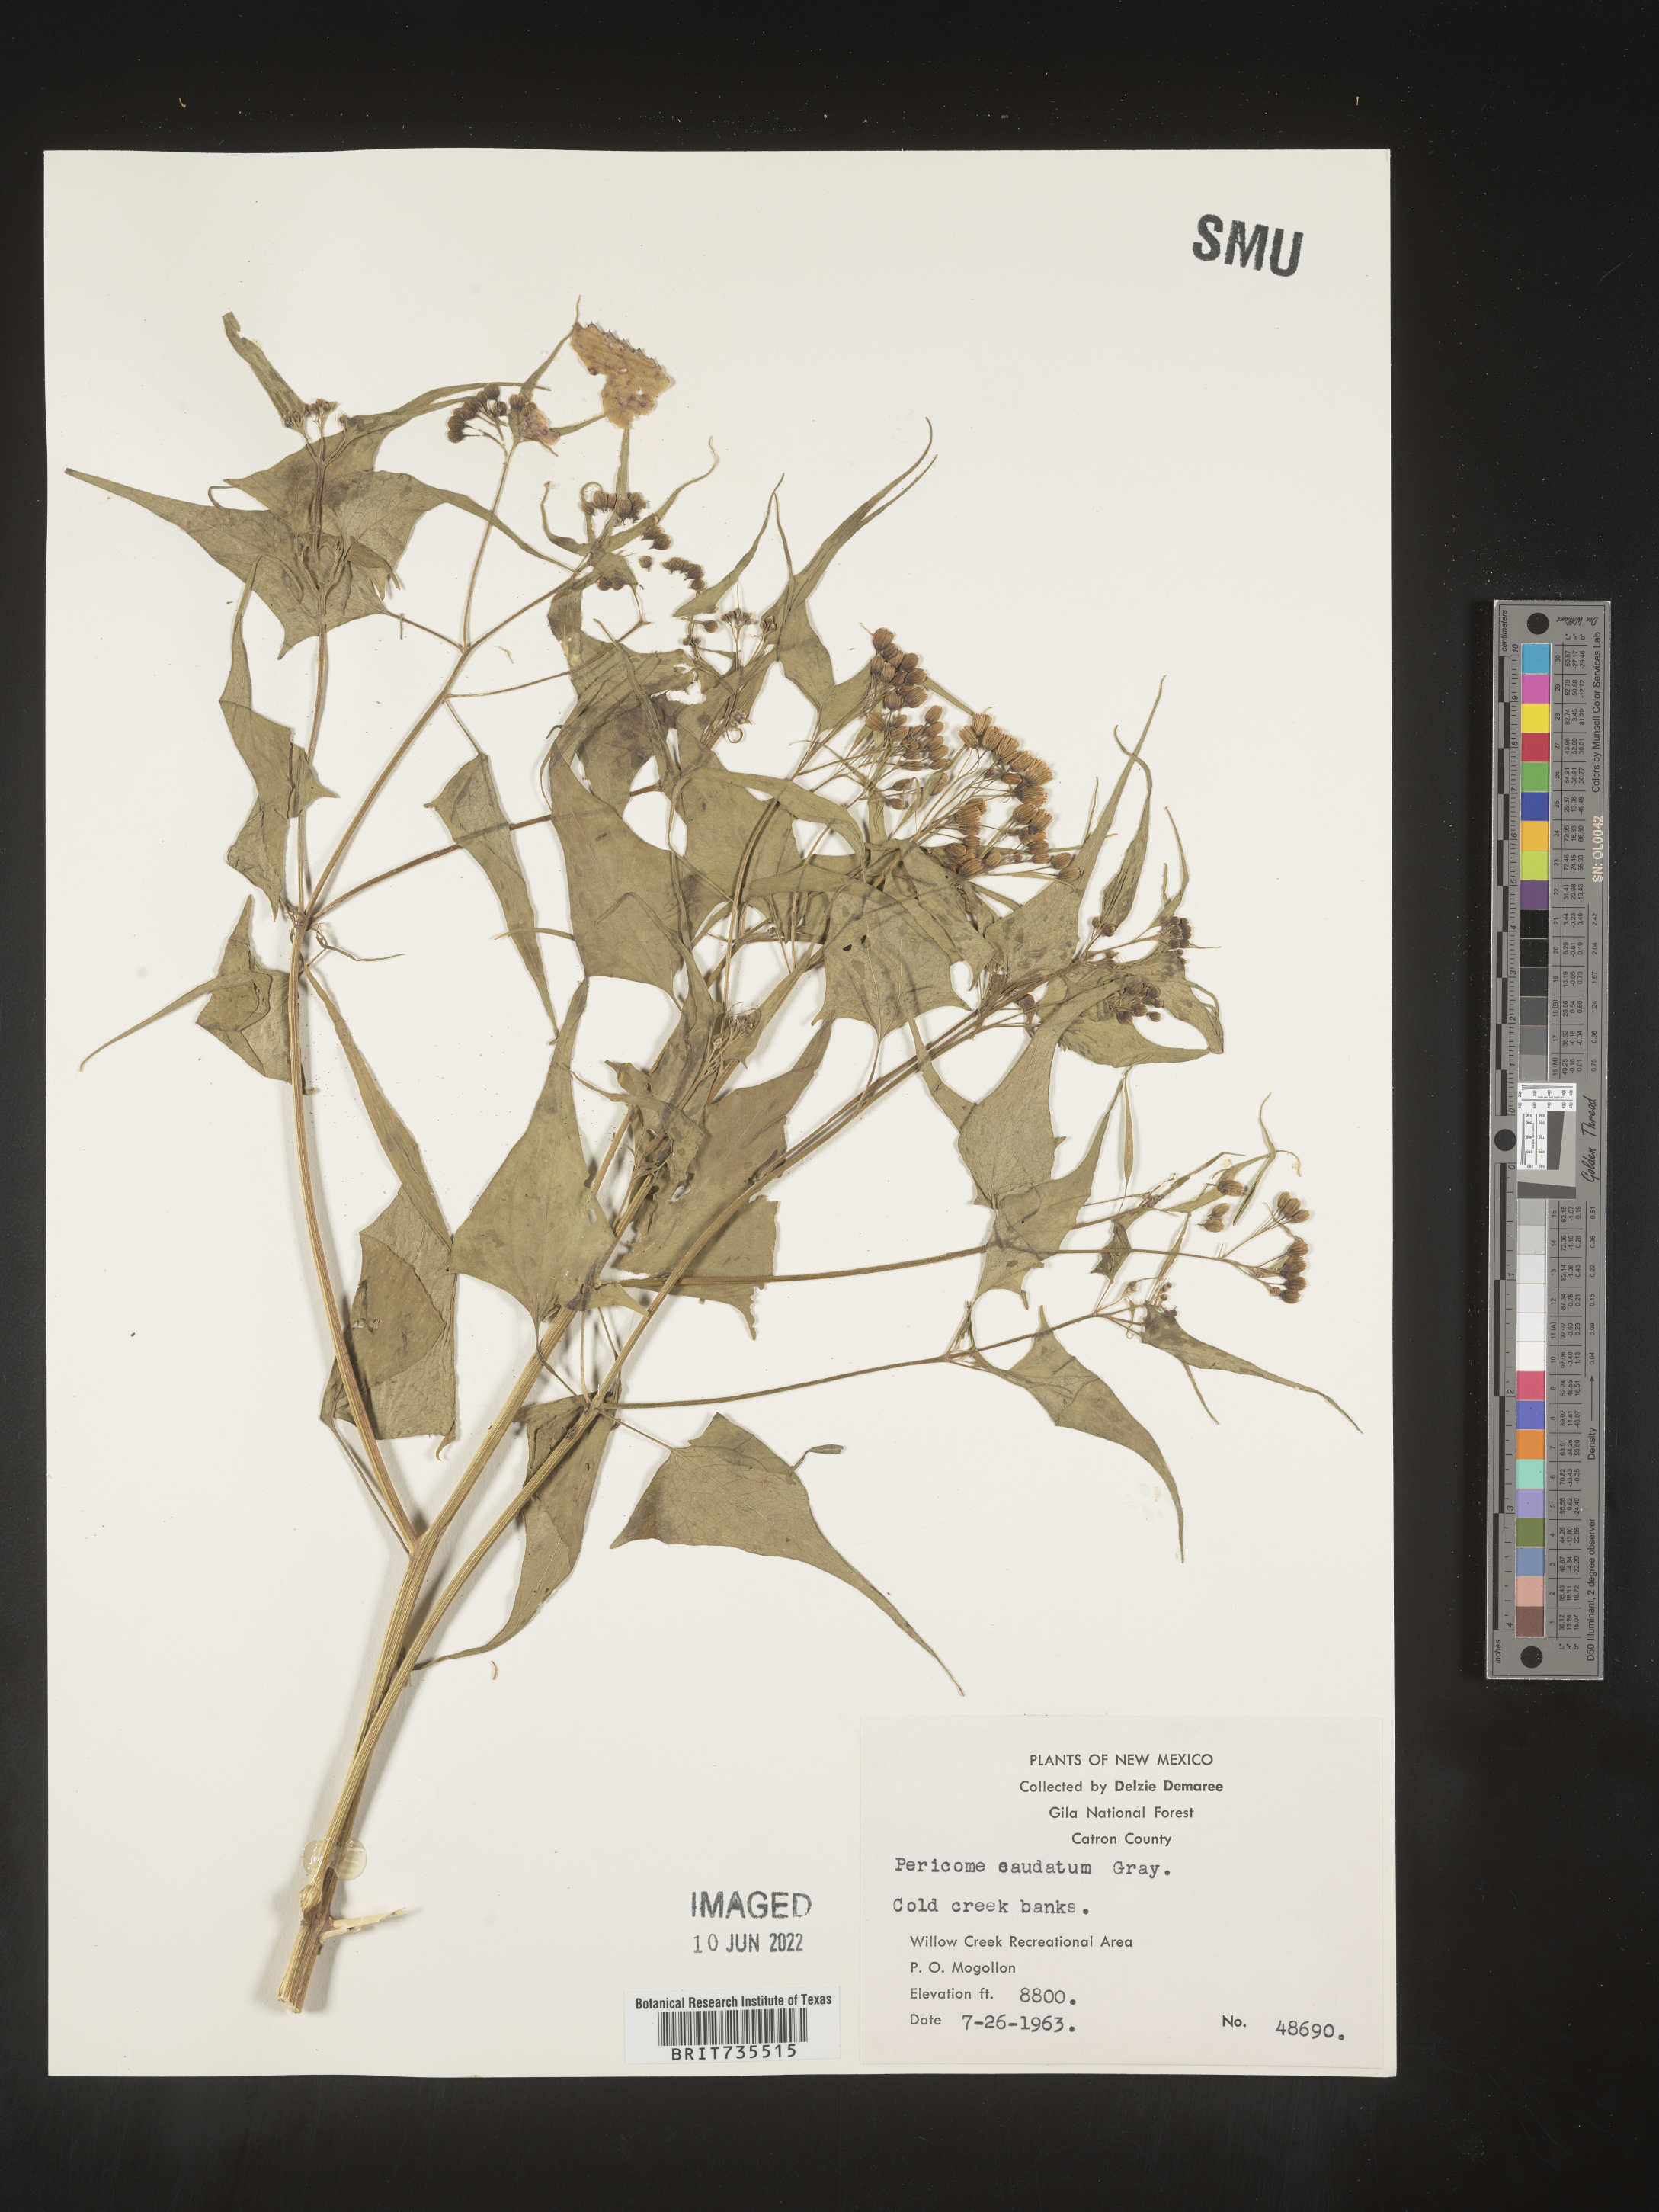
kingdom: Plantae
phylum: Tracheophyta
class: Magnoliopsida
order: Asterales
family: Asteraceae
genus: Pericome
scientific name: Pericome
